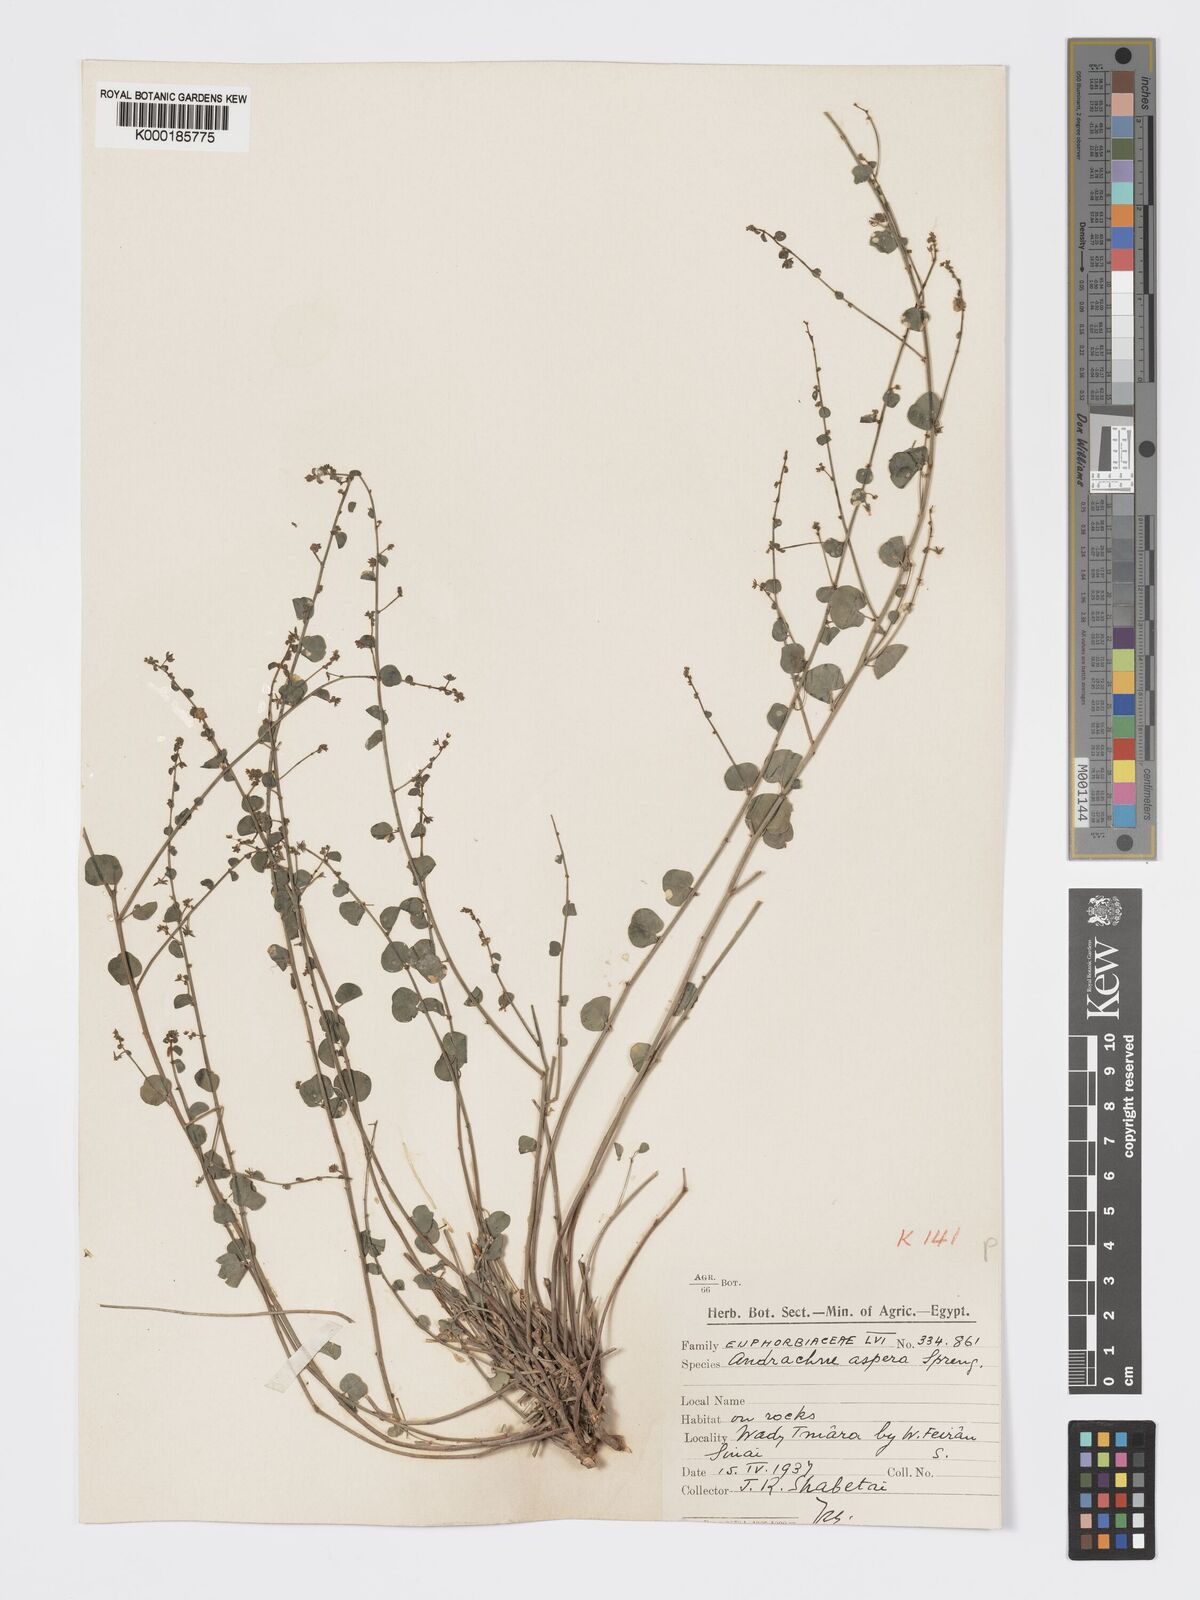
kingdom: Plantae
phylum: Tracheophyta
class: Magnoliopsida
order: Malpighiales
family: Phyllanthaceae
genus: Andrachne
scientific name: Andrachne aspera
